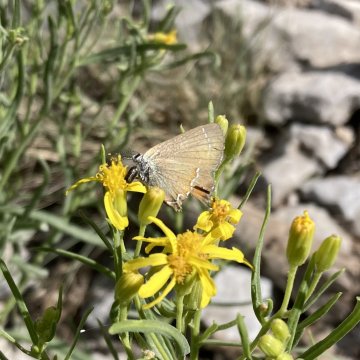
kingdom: Animalia
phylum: Arthropoda
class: Insecta
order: Lepidoptera
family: Lycaenidae
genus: Mitoura
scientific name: Mitoura gryneus
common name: Juniper Hairstreak
